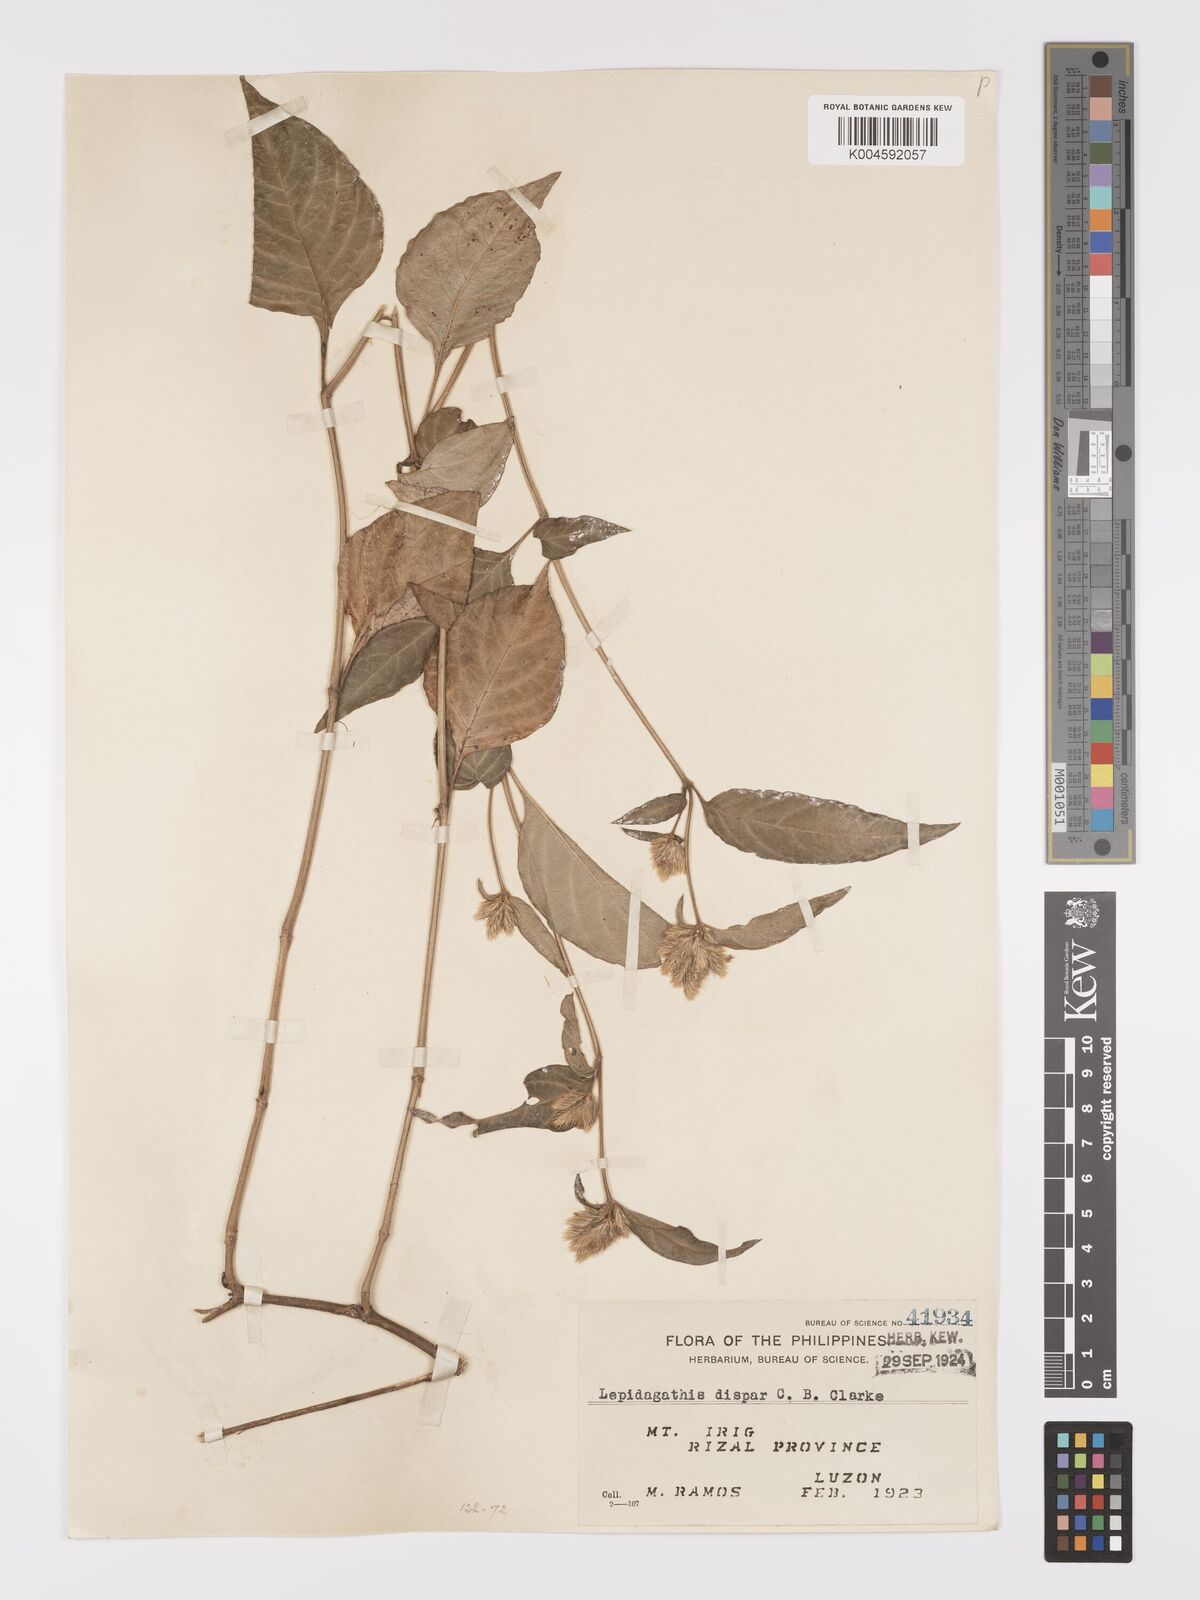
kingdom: Plantae
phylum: Tracheophyta
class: Magnoliopsida
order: Lamiales
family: Acanthaceae
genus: Lepidagathis
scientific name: Lepidagathis dispar
